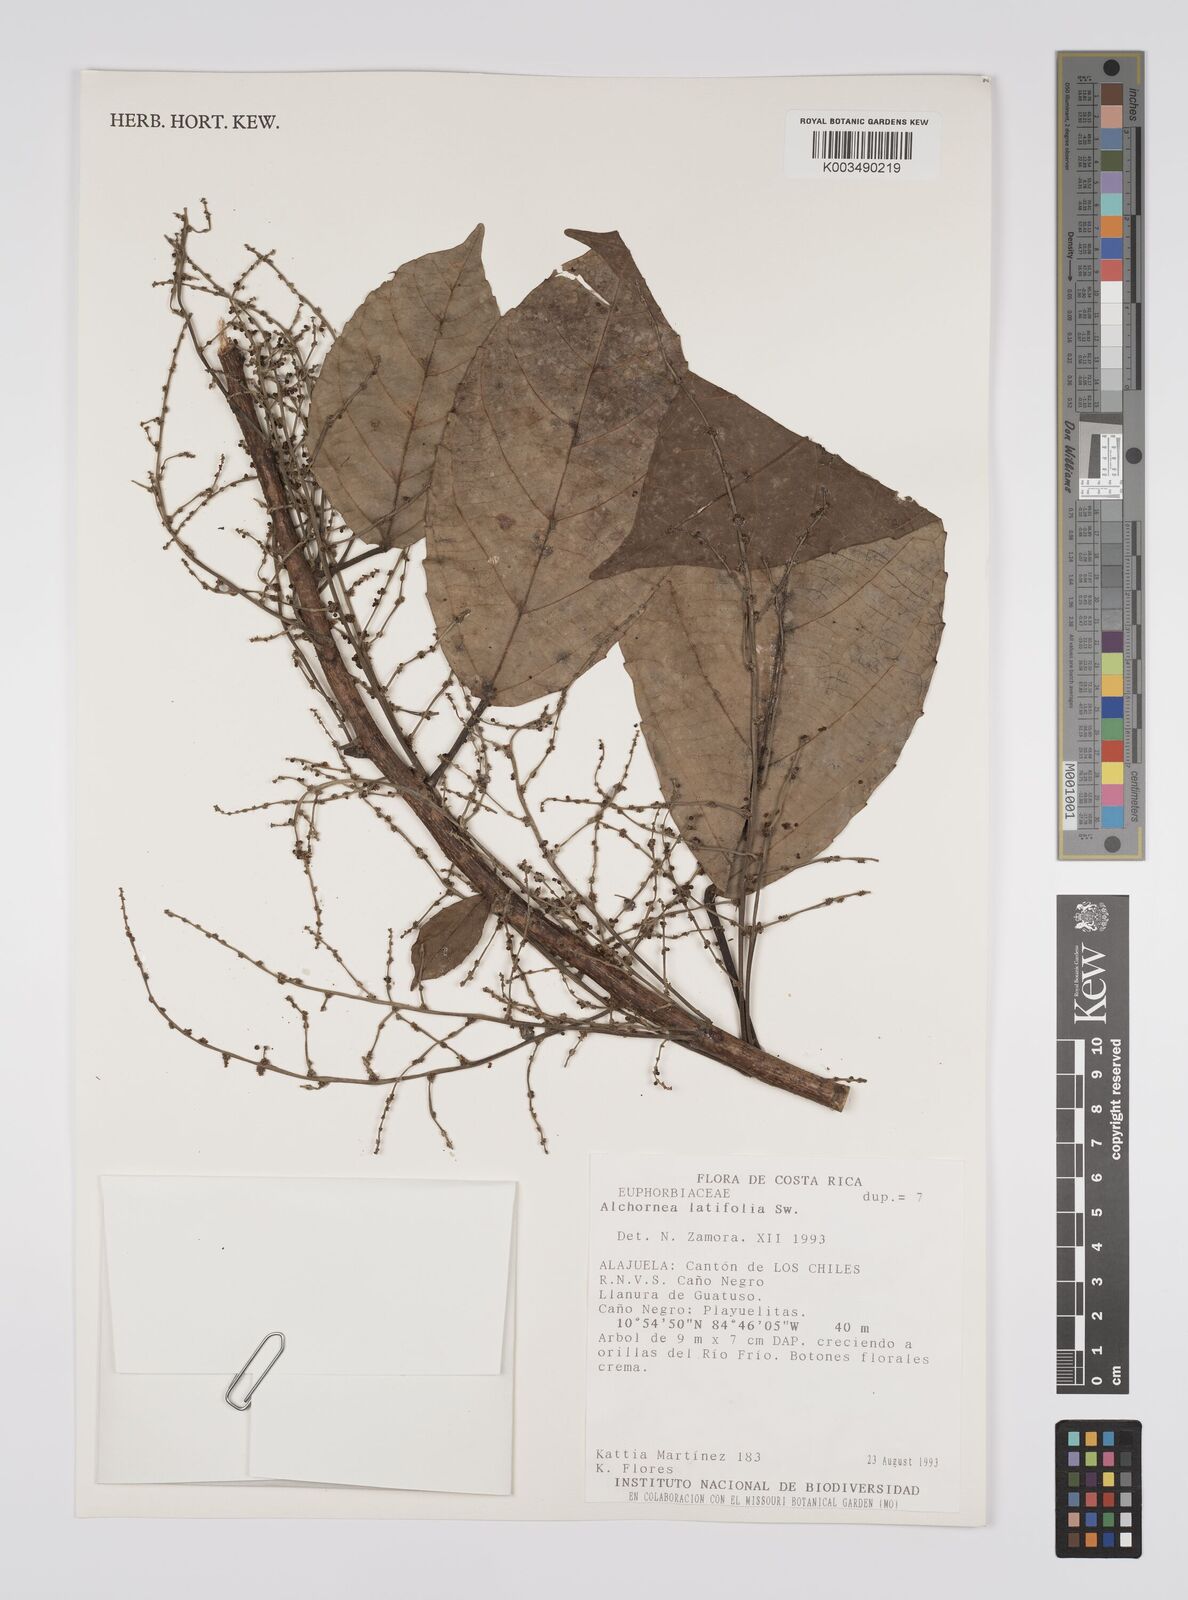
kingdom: Plantae
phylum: Tracheophyta
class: Magnoliopsida
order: Malpighiales
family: Euphorbiaceae
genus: Alchornea
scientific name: Alchornea latifolia
